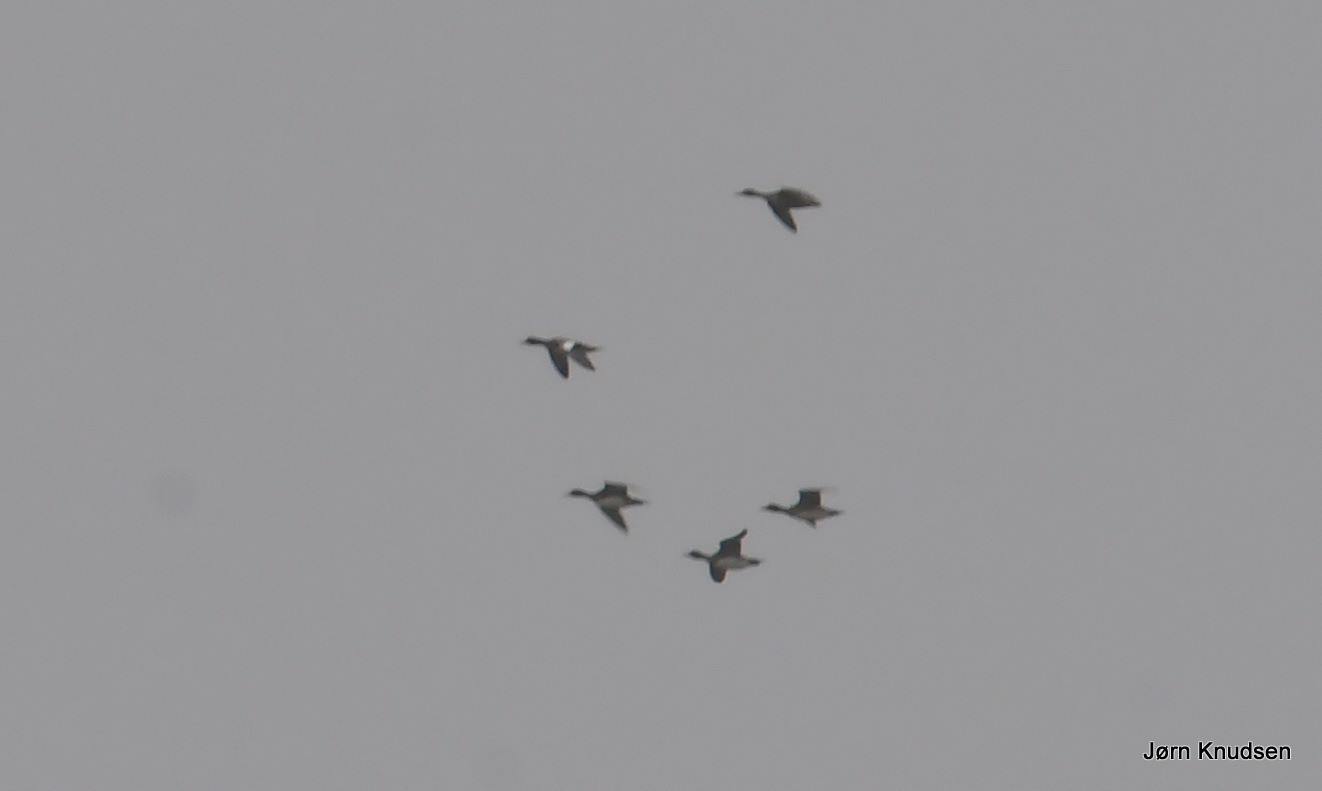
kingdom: Animalia
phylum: Chordata
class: Aves
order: Anseriformes
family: Anatidae
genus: Anas
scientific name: Anas acuta
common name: Spidsand
